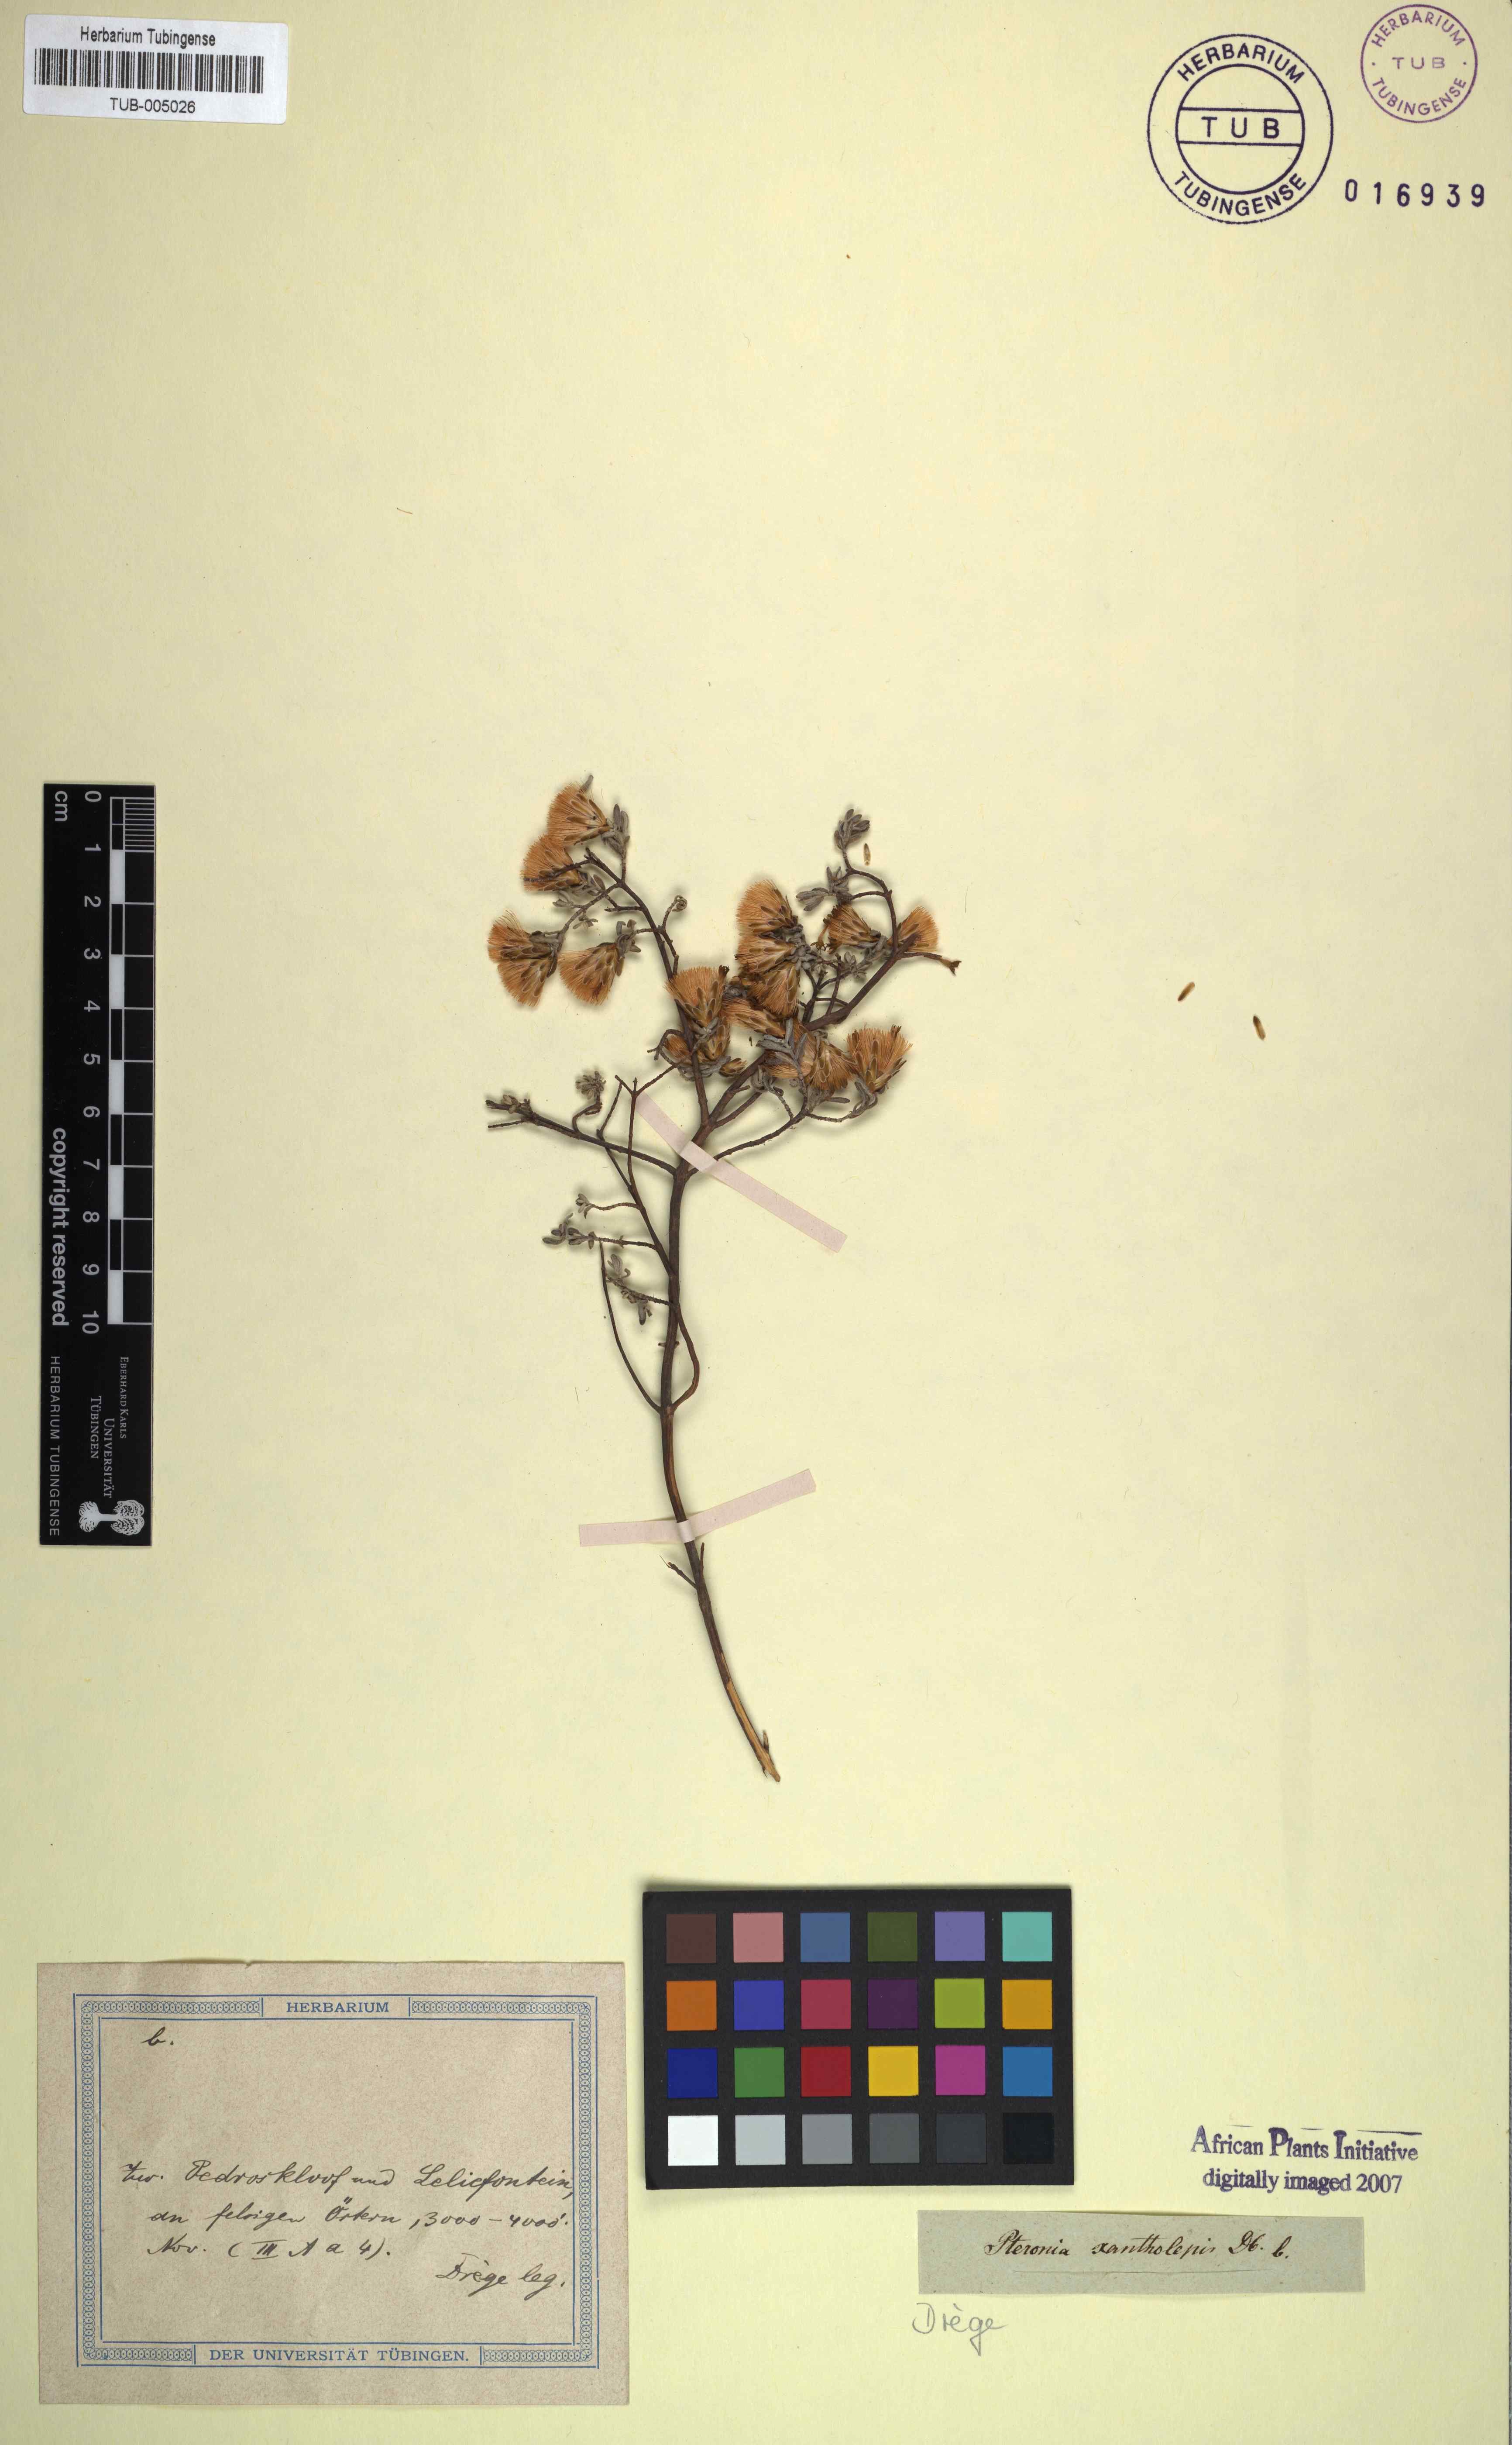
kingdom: Plantae
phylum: Tracheophyta
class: Magnoliopsida
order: Asterales
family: Asteraceae
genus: Pteronia
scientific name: Pteronia incana
